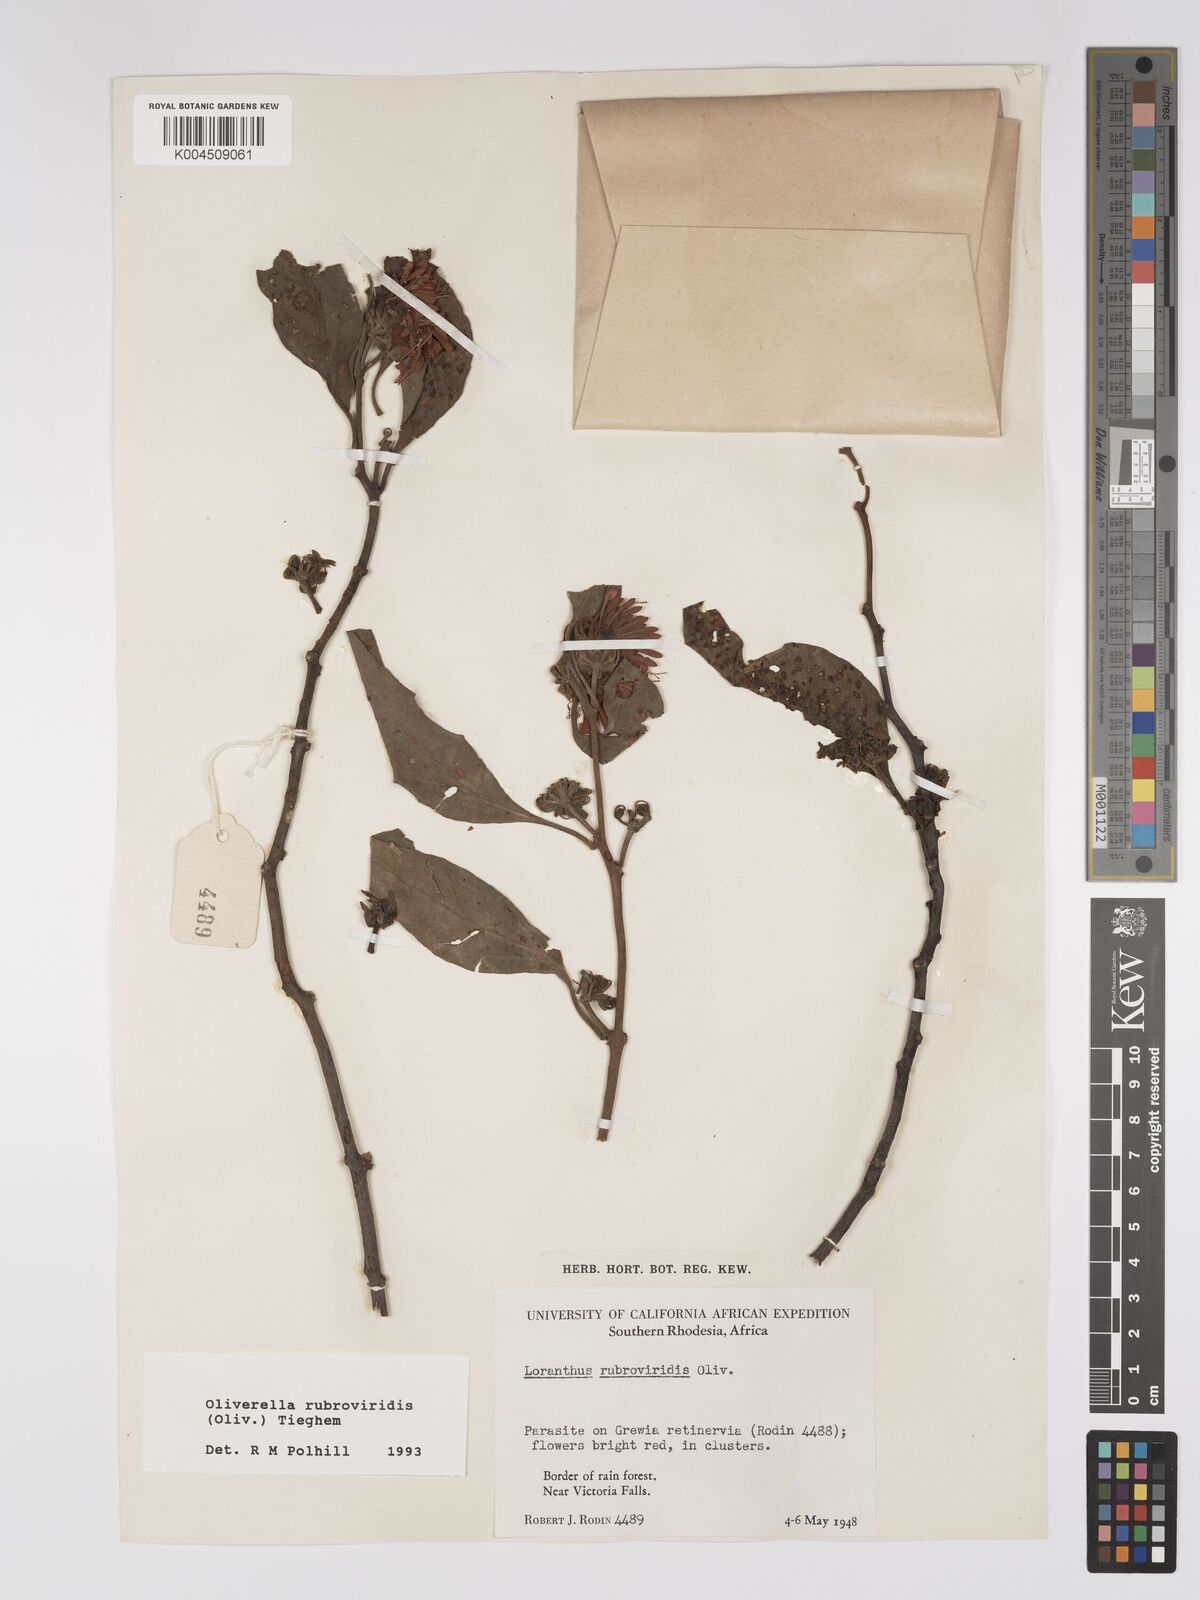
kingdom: Plantae
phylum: Tracheophyta
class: Magnoliopsida
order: Santalales
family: Loranthaceae
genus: Oliverella
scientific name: Oliverella rubroviridis
